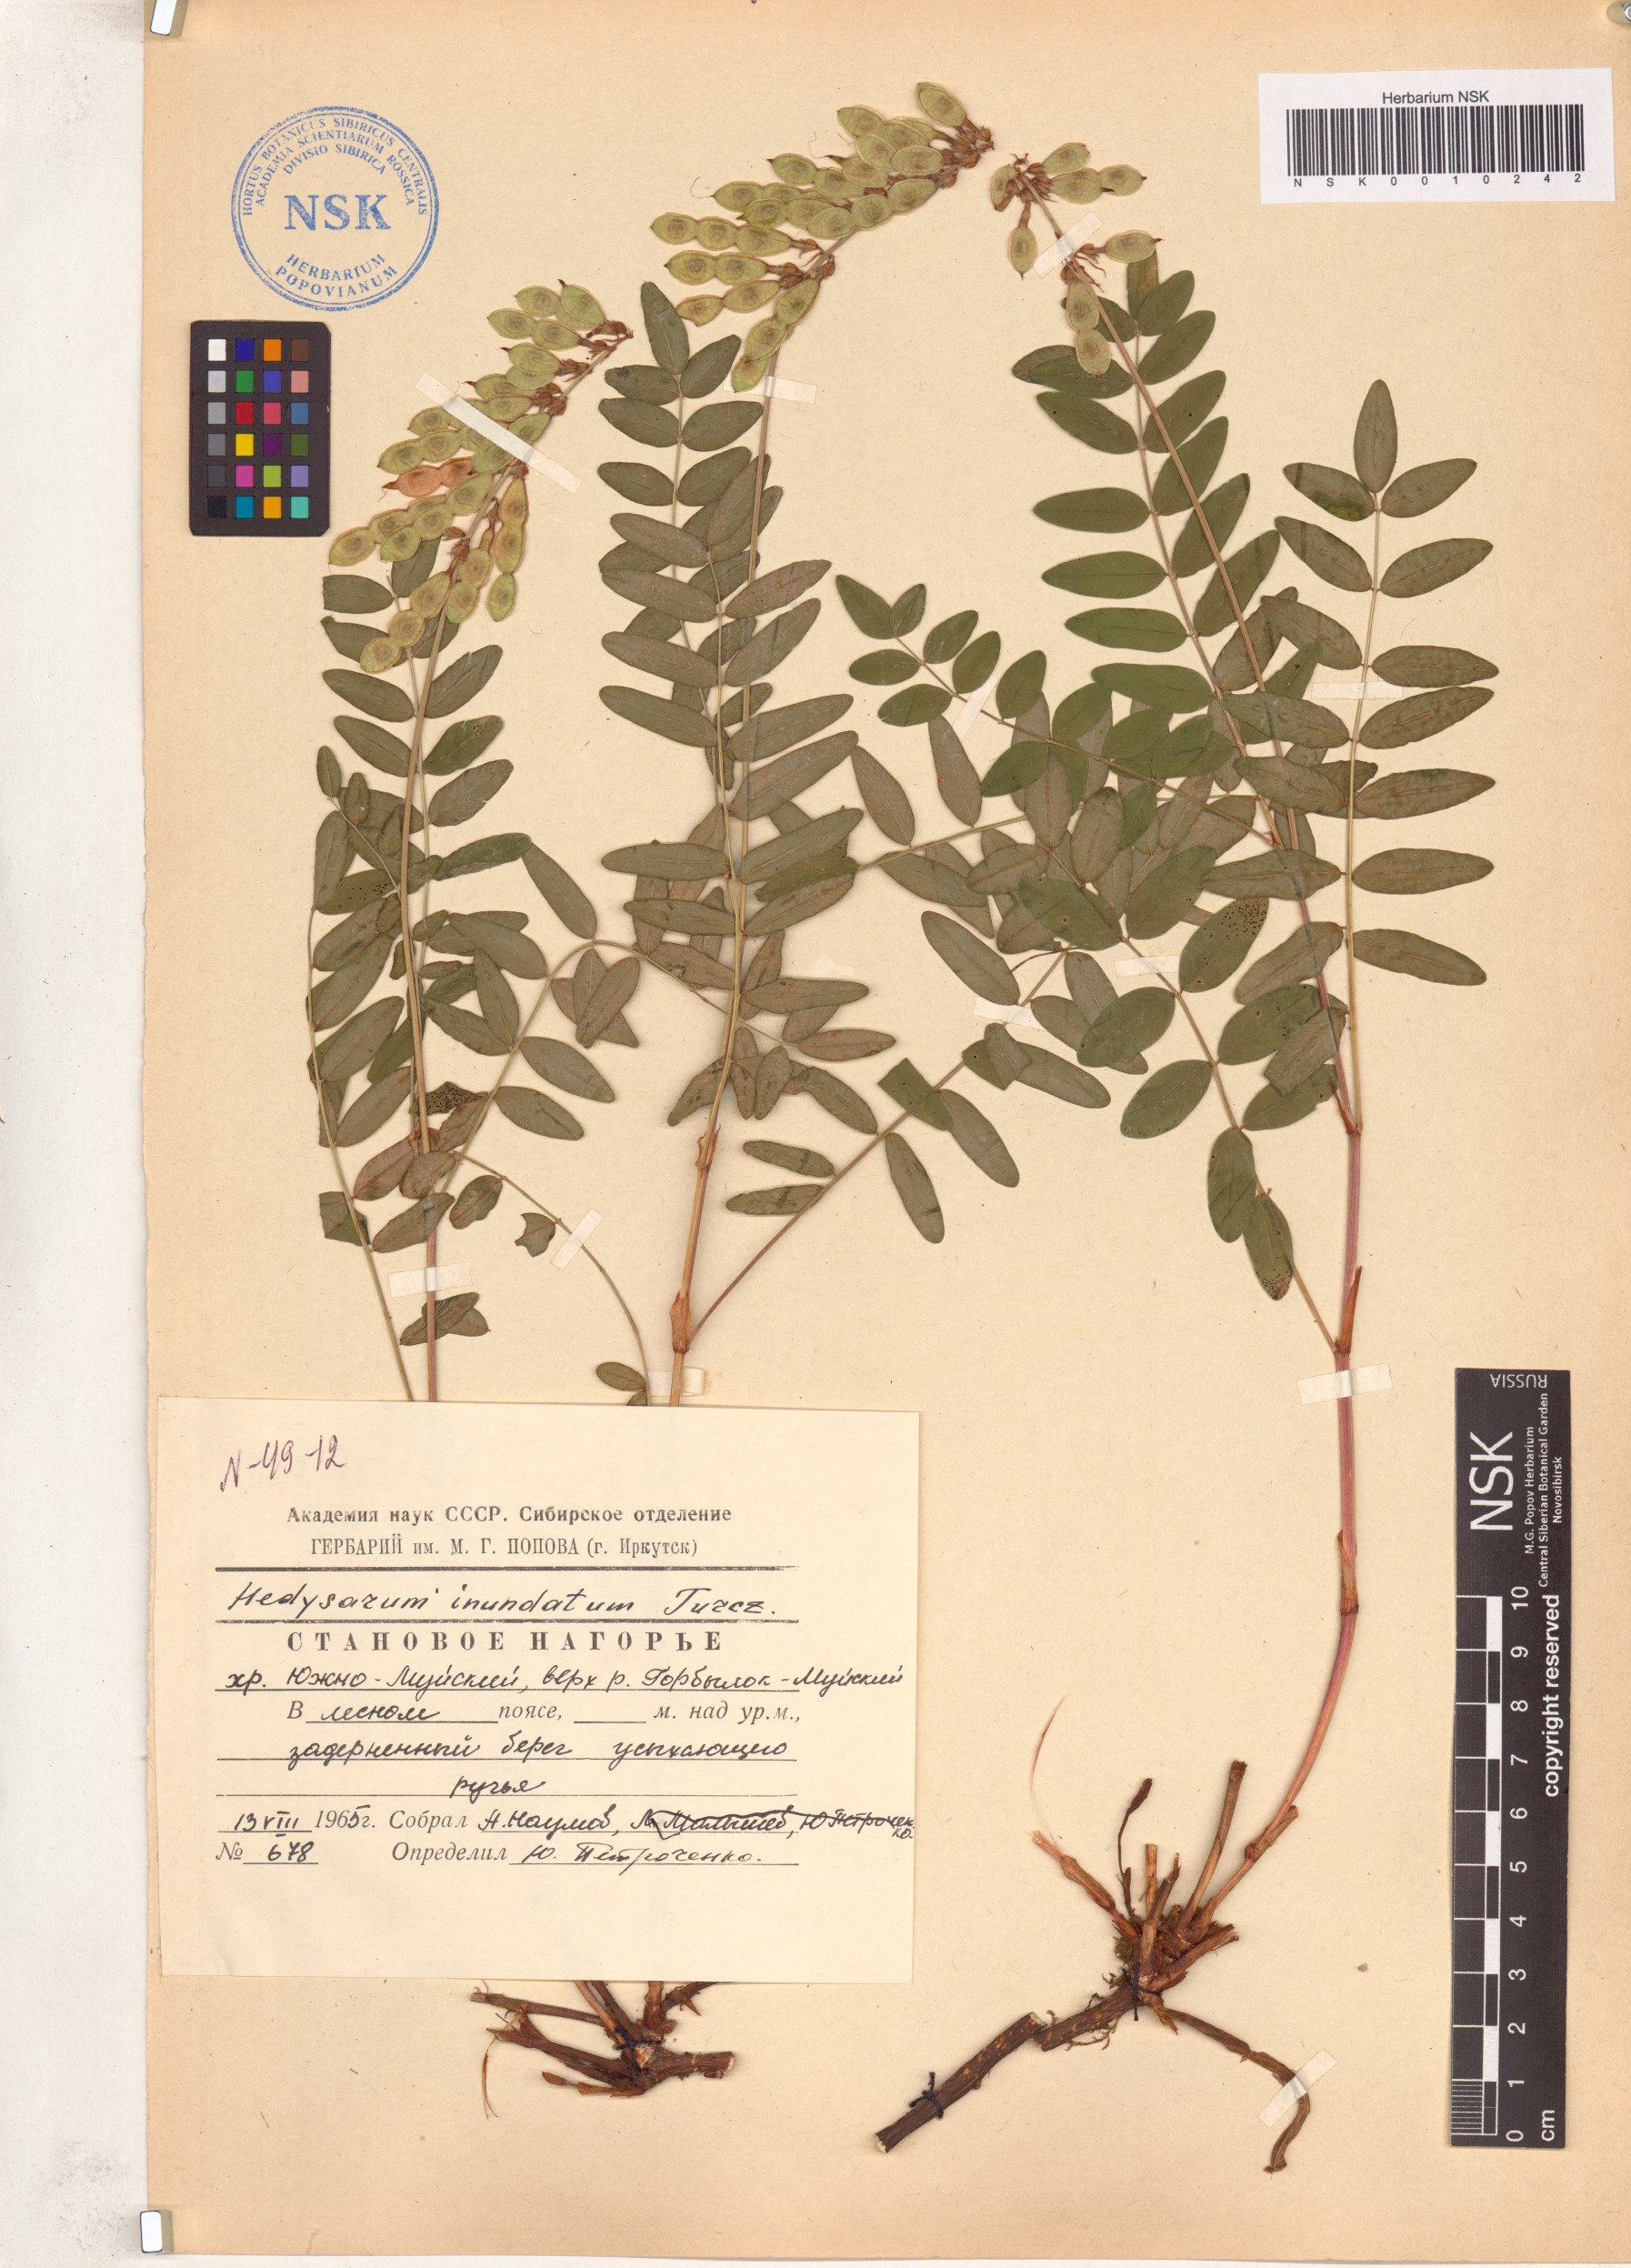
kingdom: Plantae
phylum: Tracheophyta
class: Magnoliopsida
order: Fabales
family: Fabaceae
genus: Hedysarum
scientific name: Hedysarum inundatum
